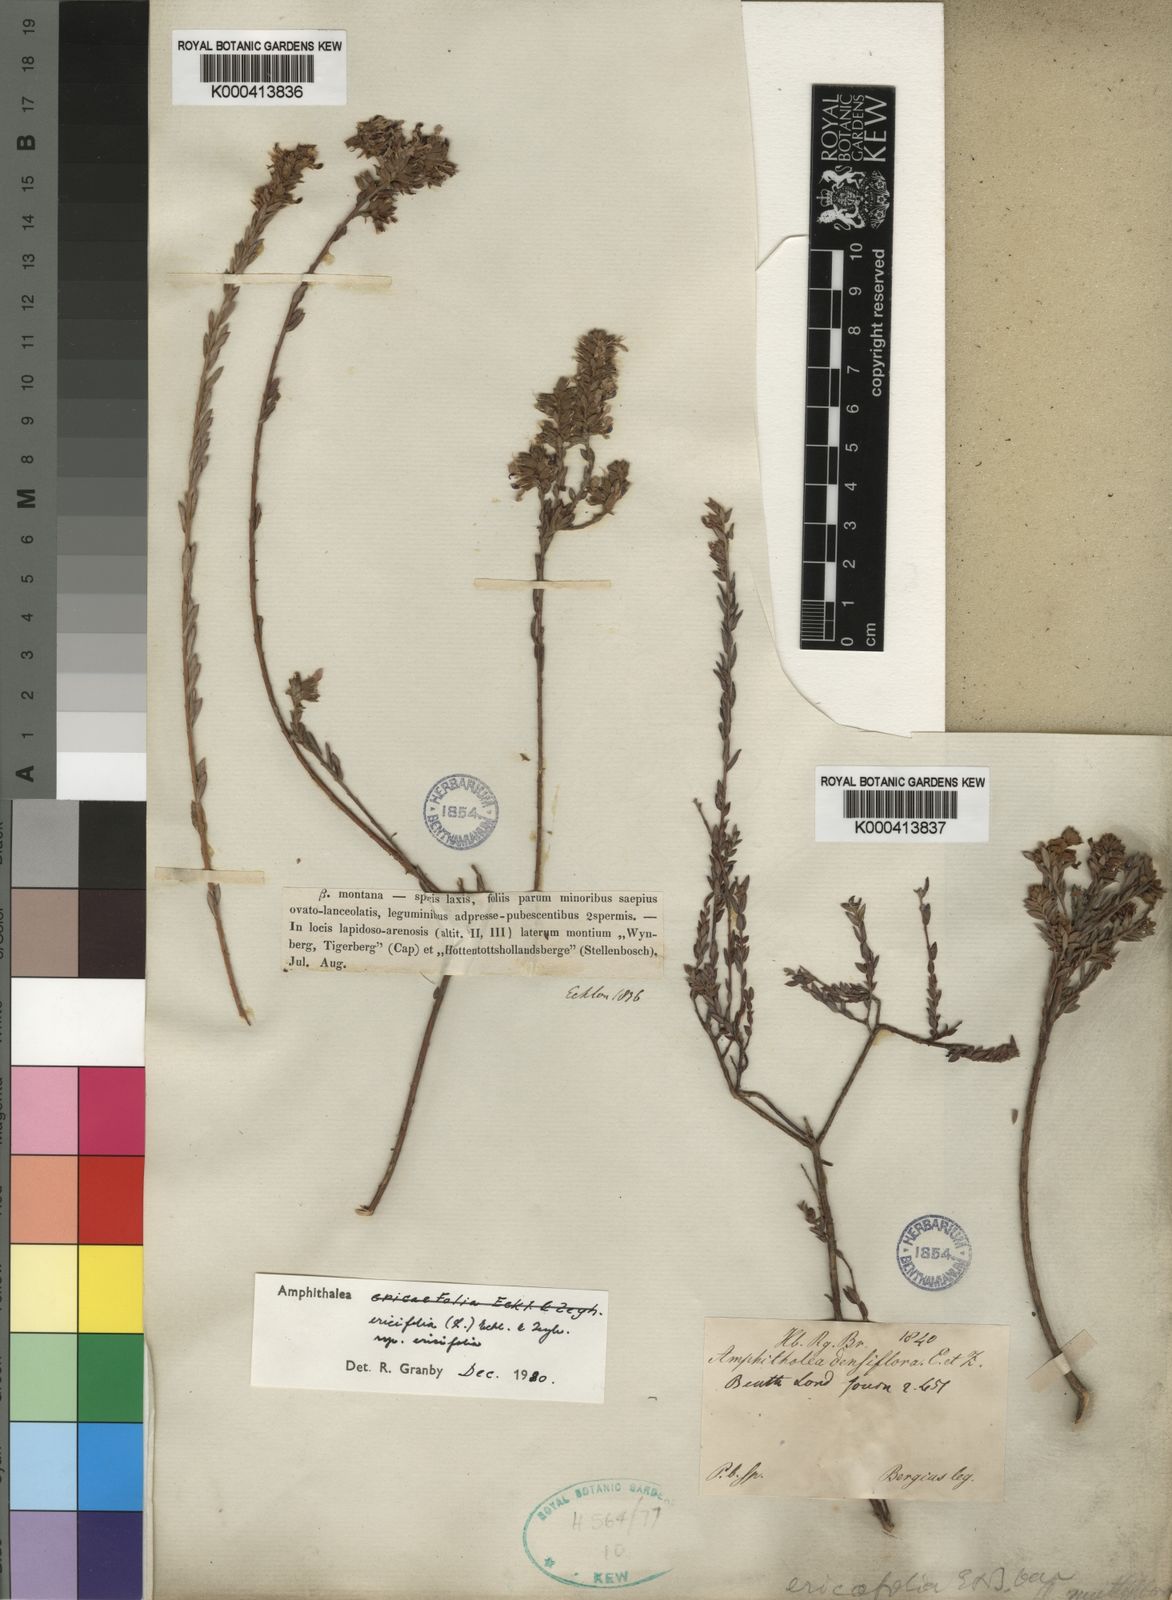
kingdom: Plantae
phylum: Tracheophyta
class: Magnoliopsida
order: Fabales
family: Fabaceae
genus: Amphithalea
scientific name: Amphithalea ericifolia
